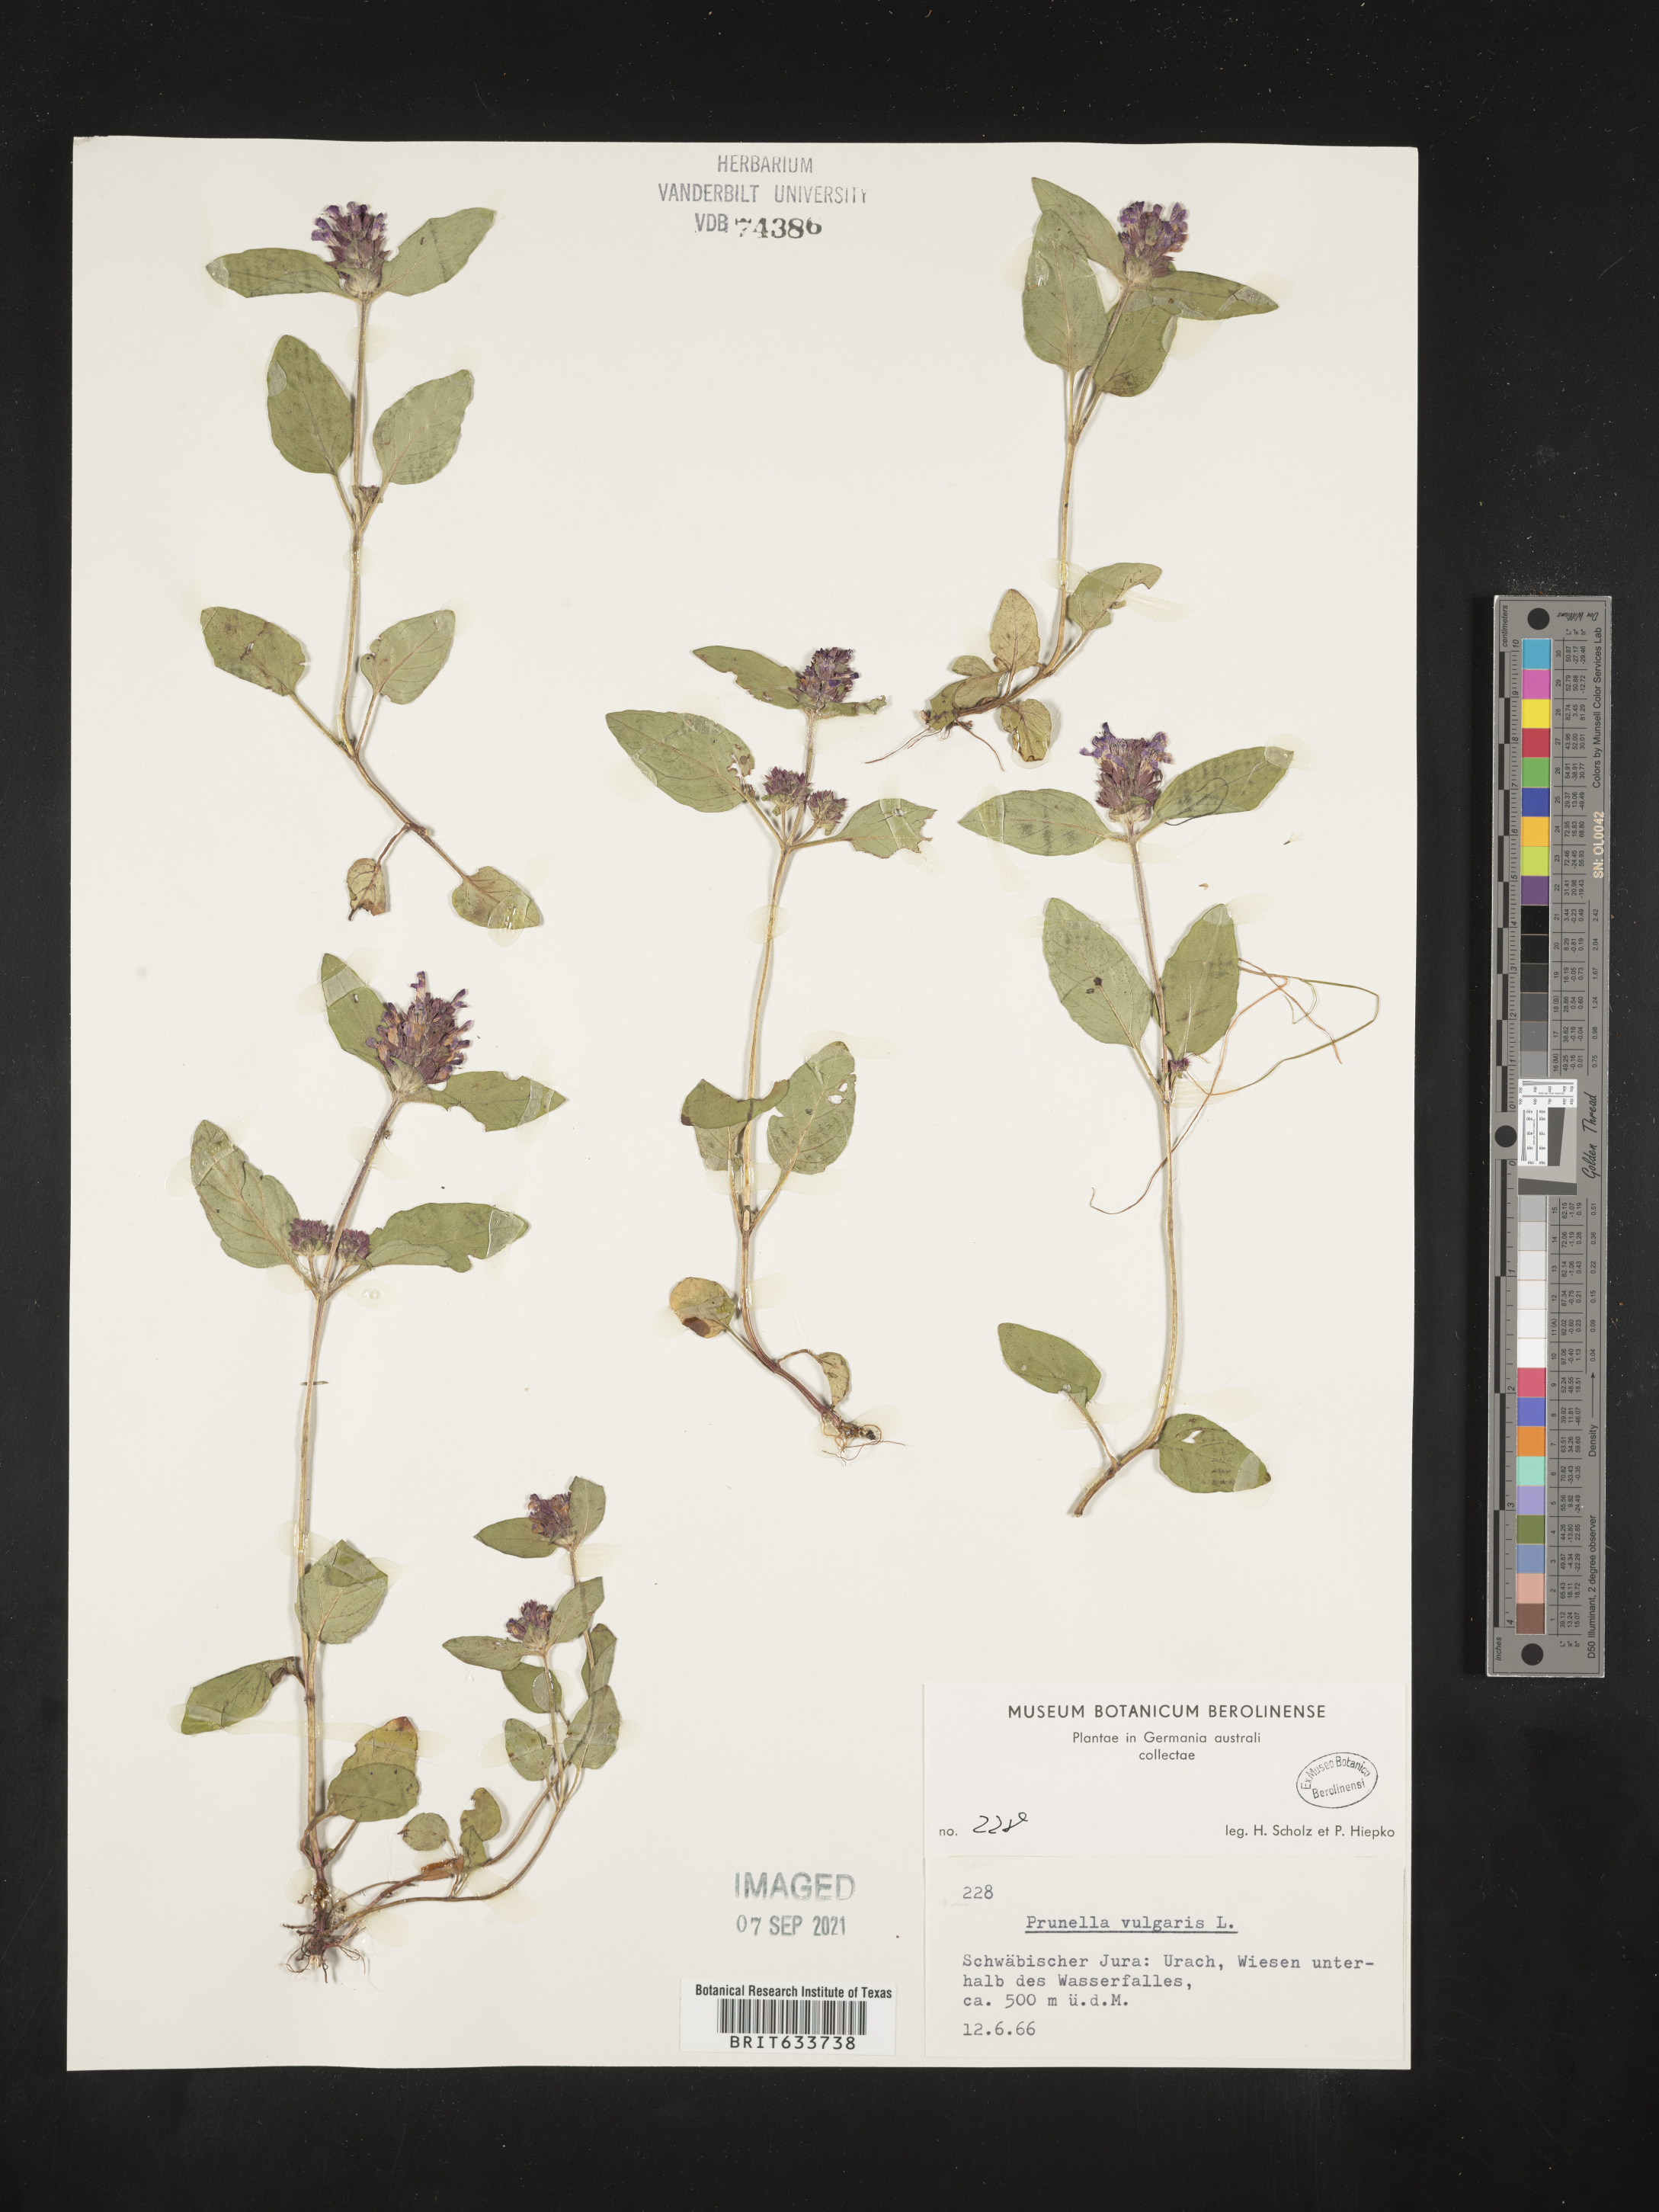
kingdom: Plantae
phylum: Tracheophyta
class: Magnoliopsida
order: Lamiales
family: Lamiaceae
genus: Prunella
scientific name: Prunella
